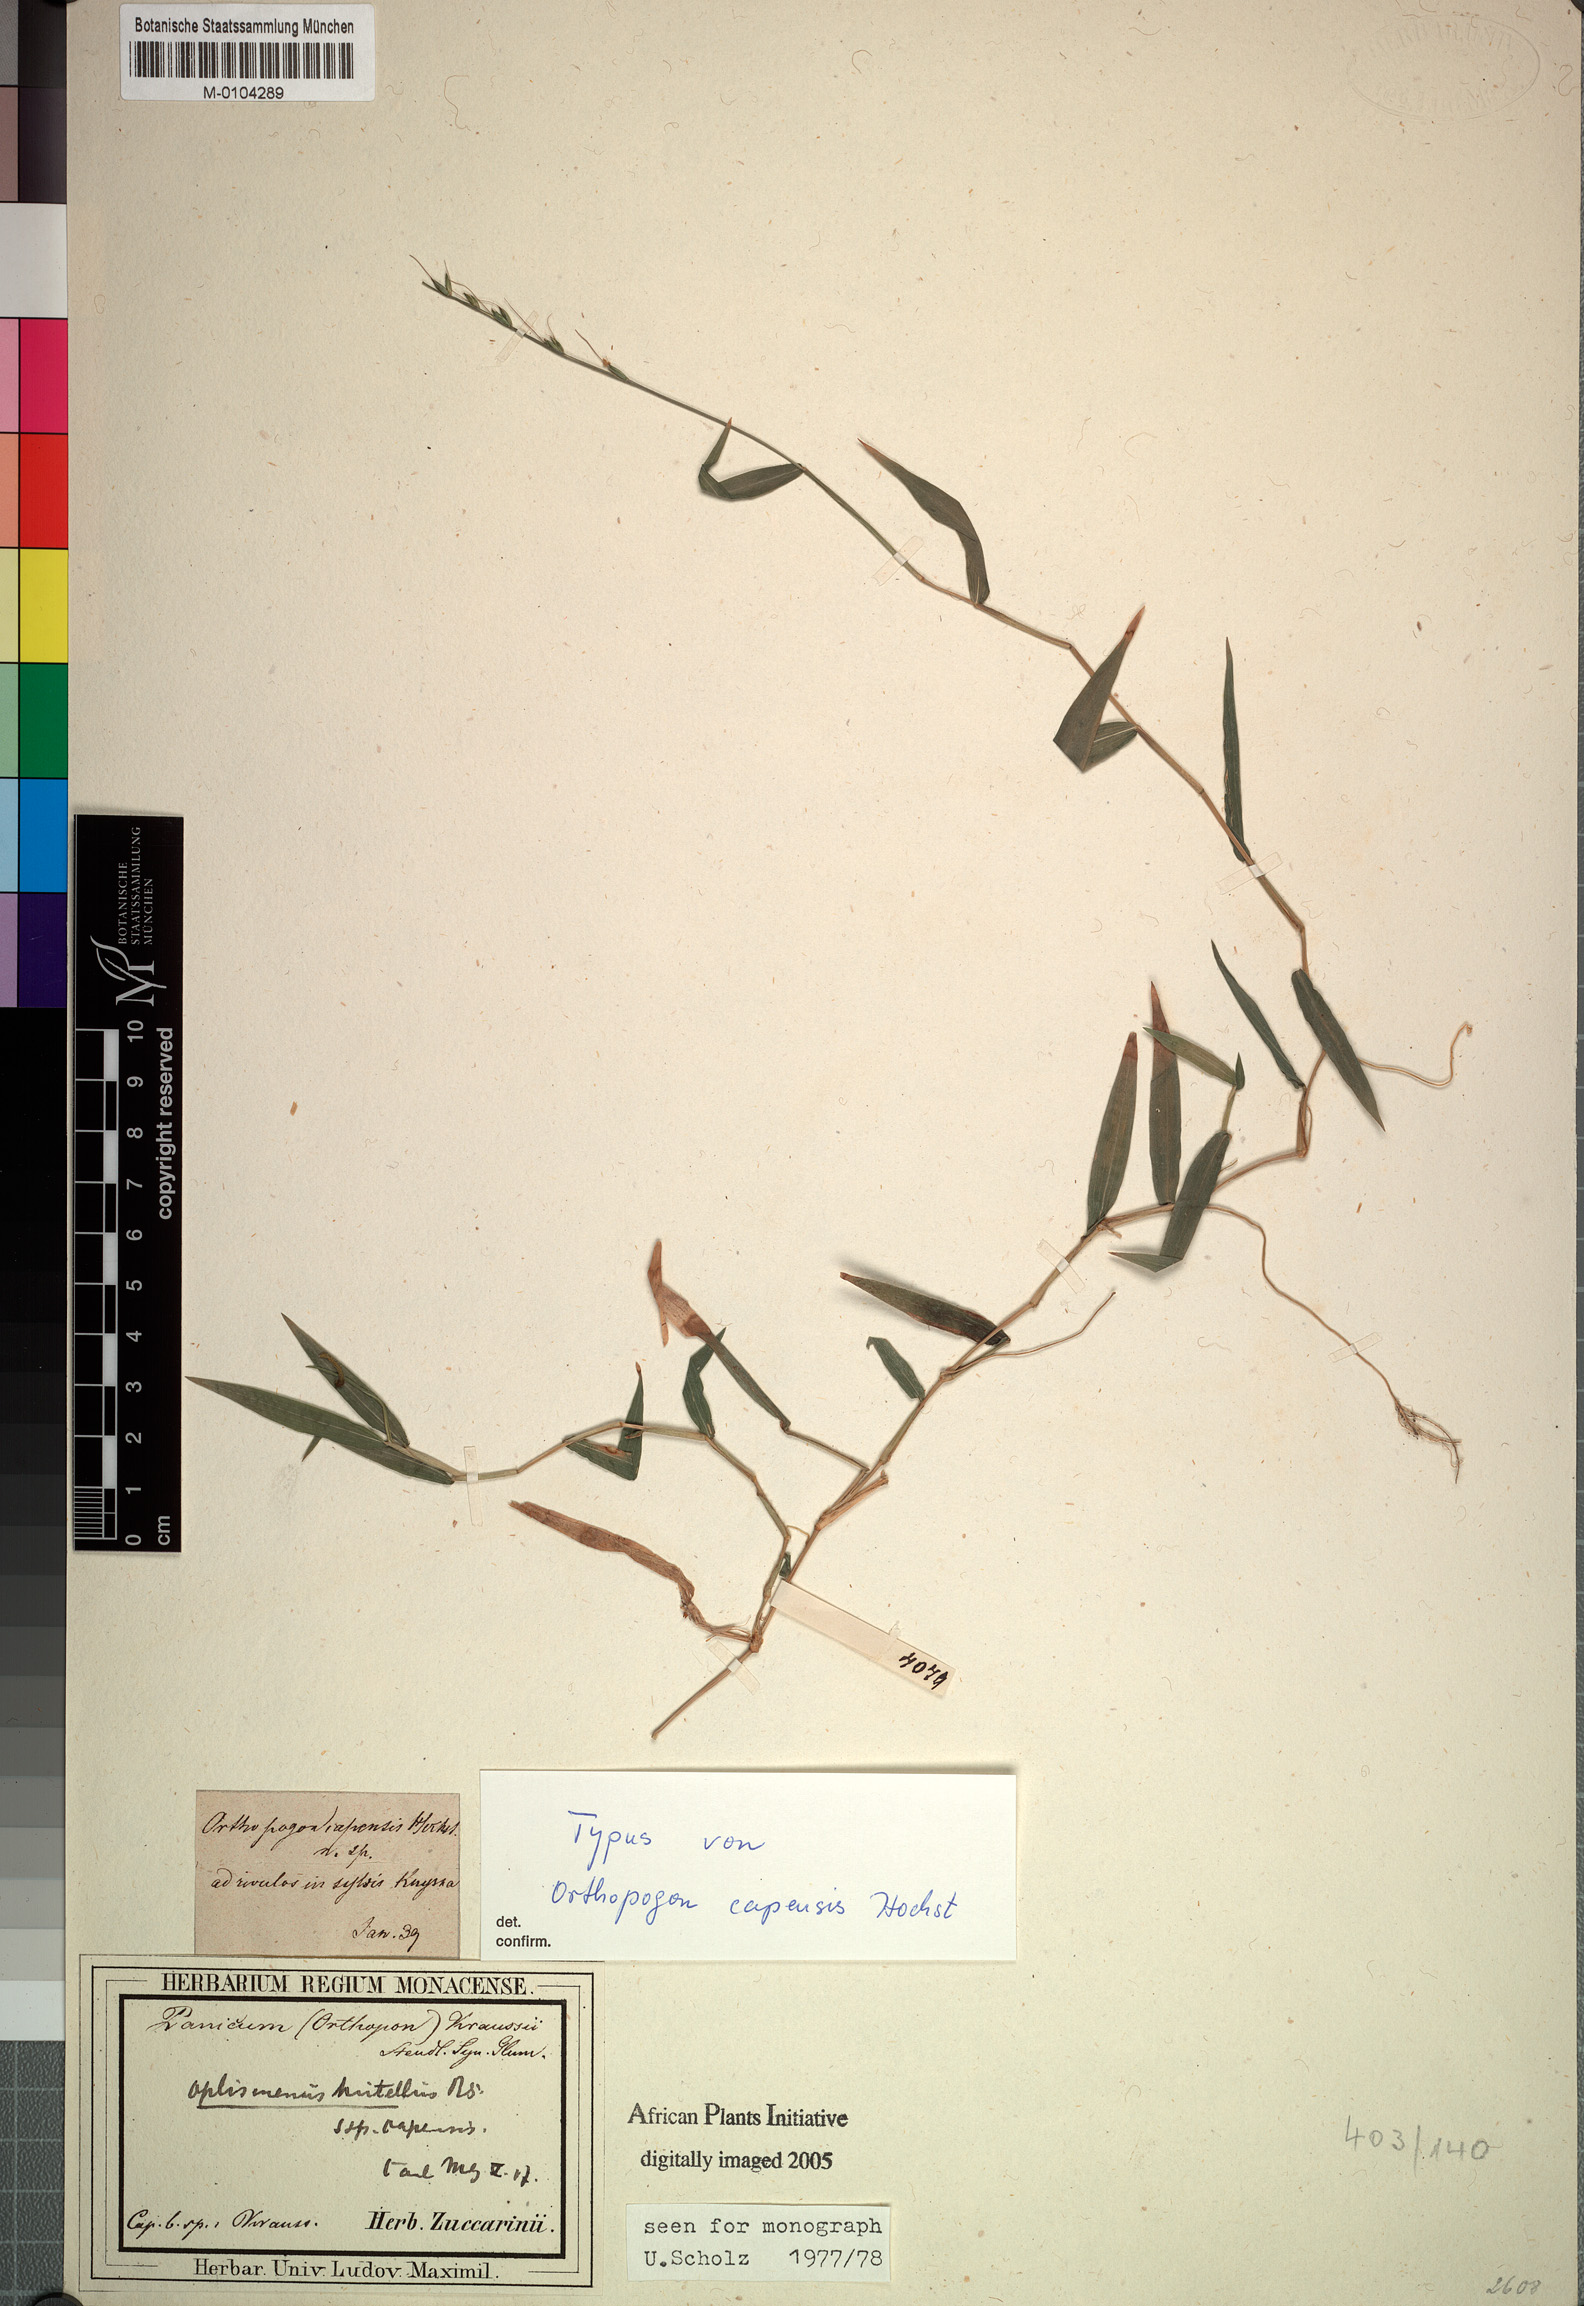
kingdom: Plantae
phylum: Tracheophyta
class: Liliopsida
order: Poales
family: Poaceae
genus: Oplismenus
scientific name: Oplismenus hirtellus
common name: Basketgrass
